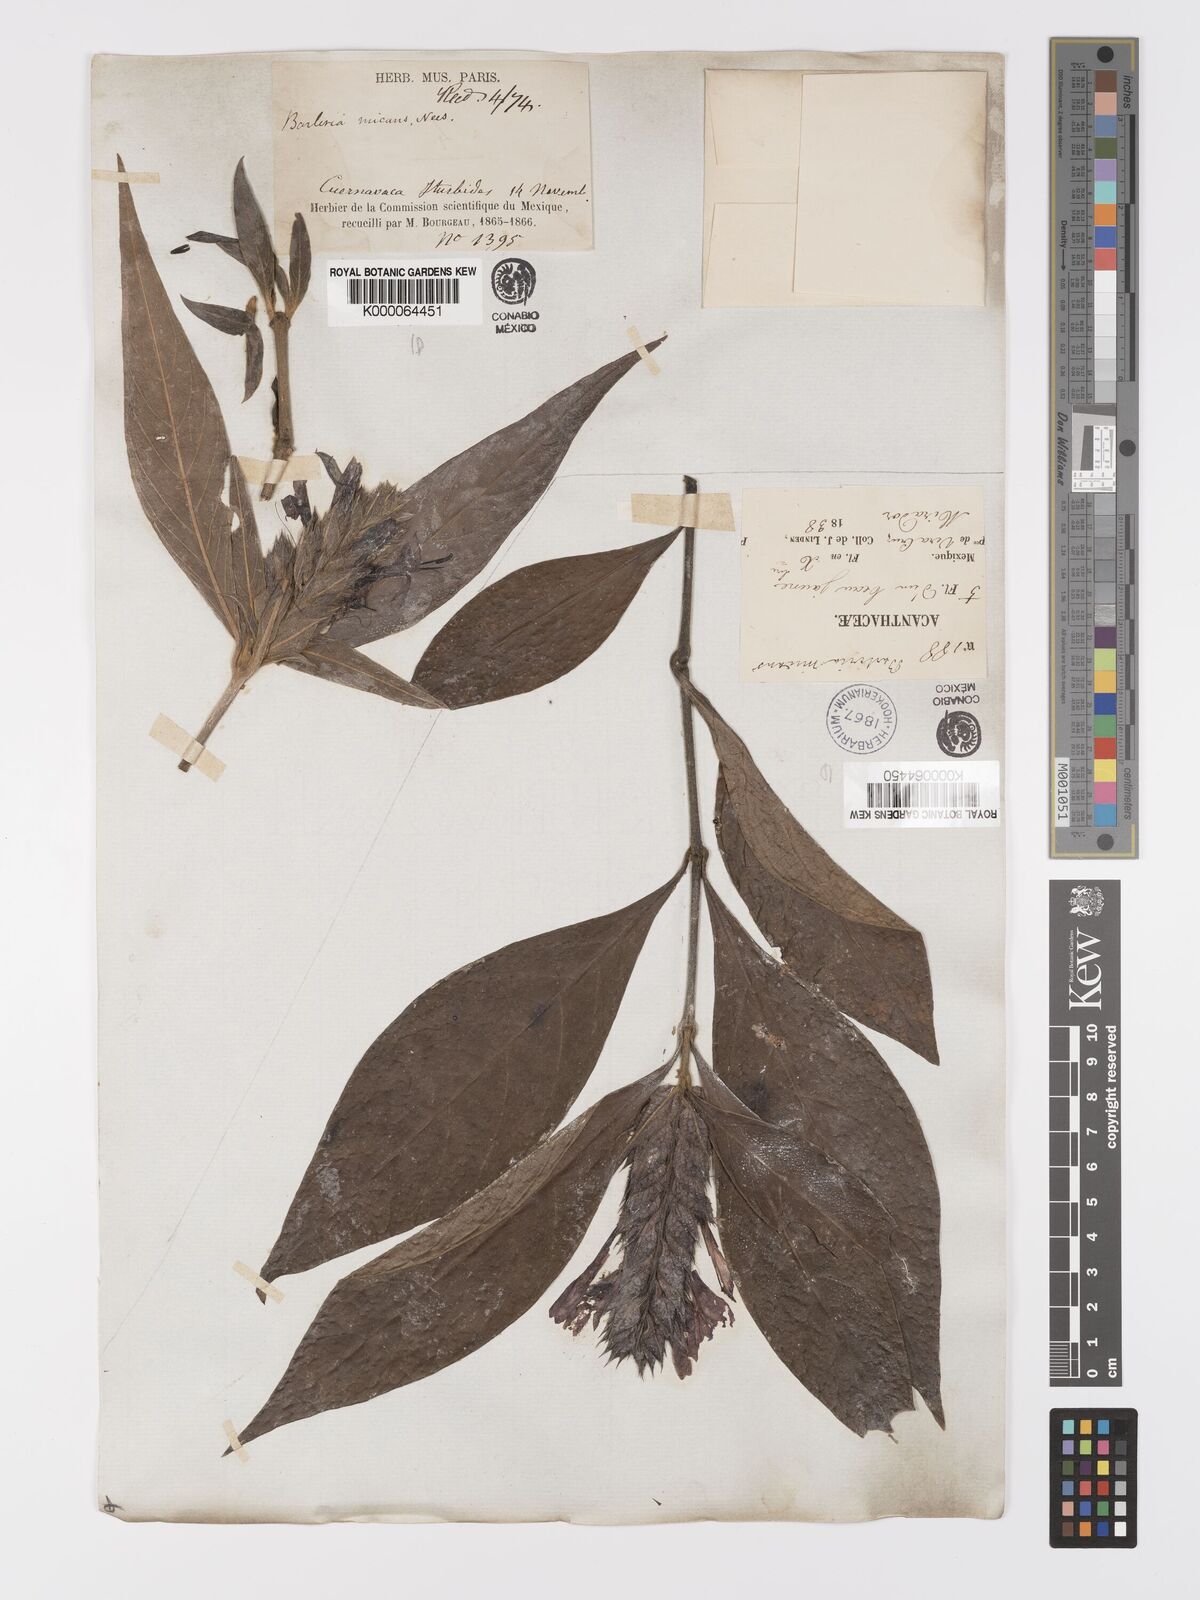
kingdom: Plantae
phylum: Tracheophyta
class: Magnoliopsida
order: Lamiales
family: Acanthaceae
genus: Barleria
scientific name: Barleria oenotheroides
